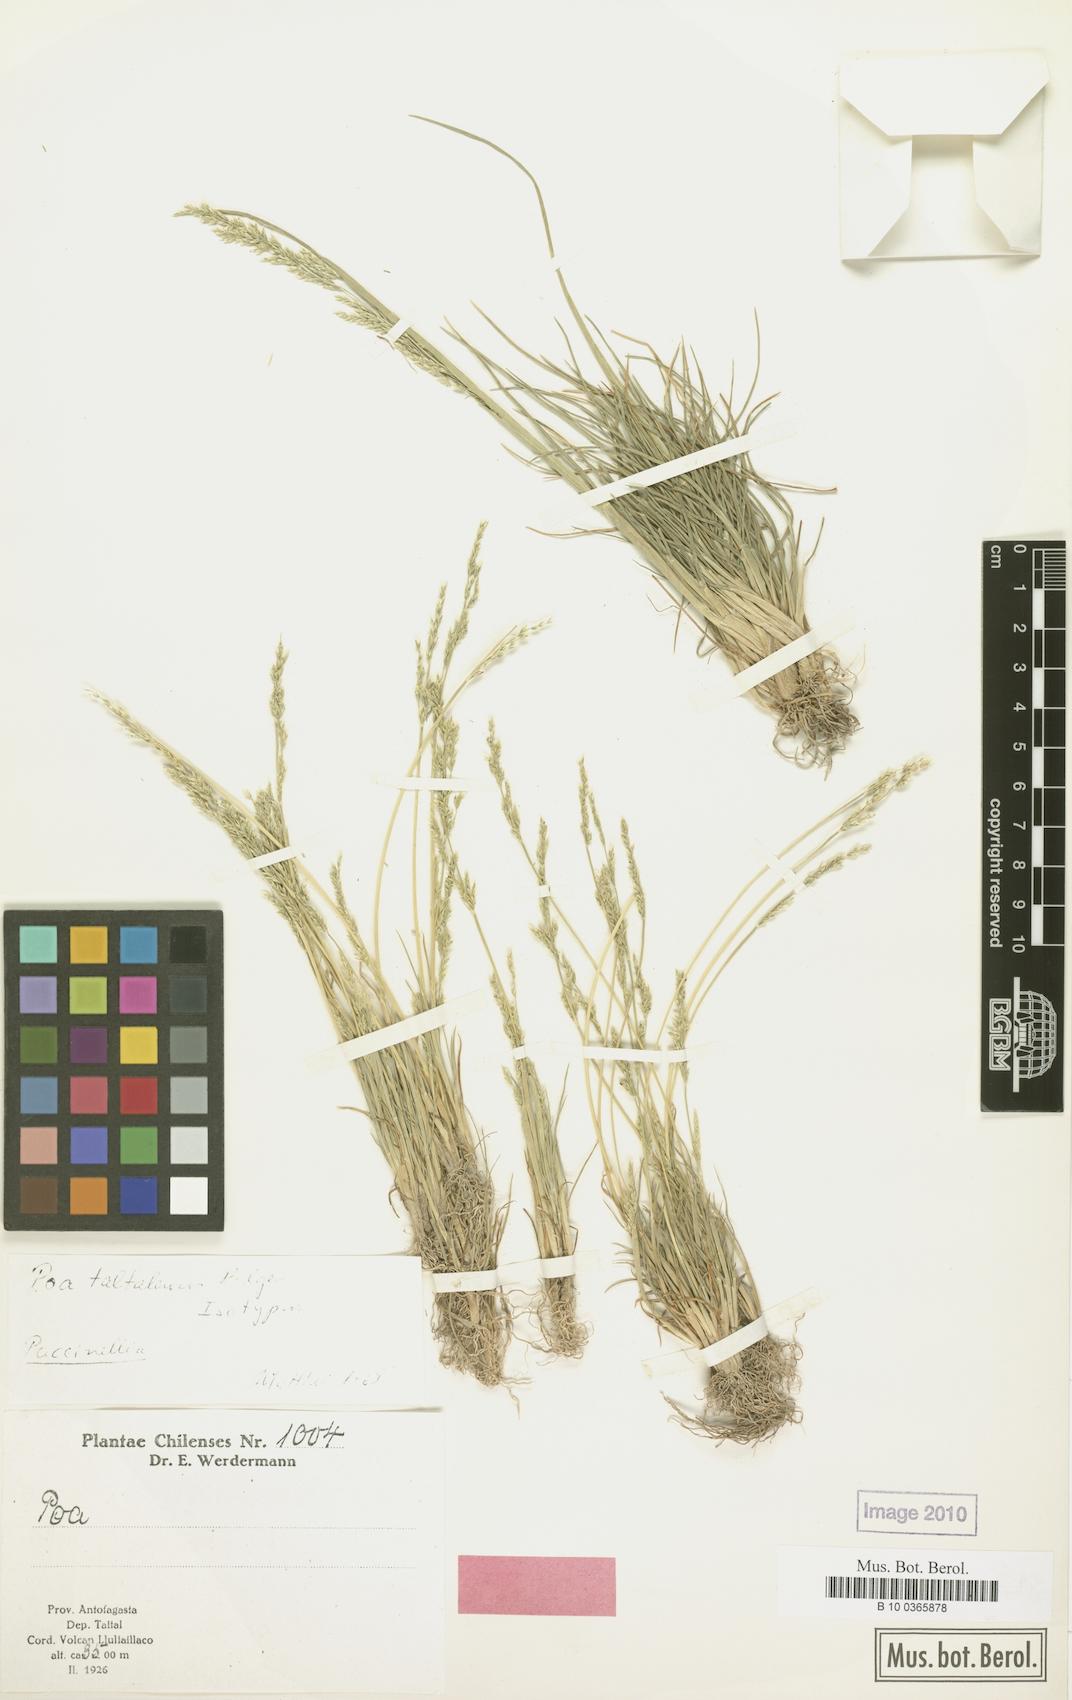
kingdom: Plantae
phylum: Tracheophyta
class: Liliopsida
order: Poales
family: Poaceae
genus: Puccinellia
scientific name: Puccinellia frigida
